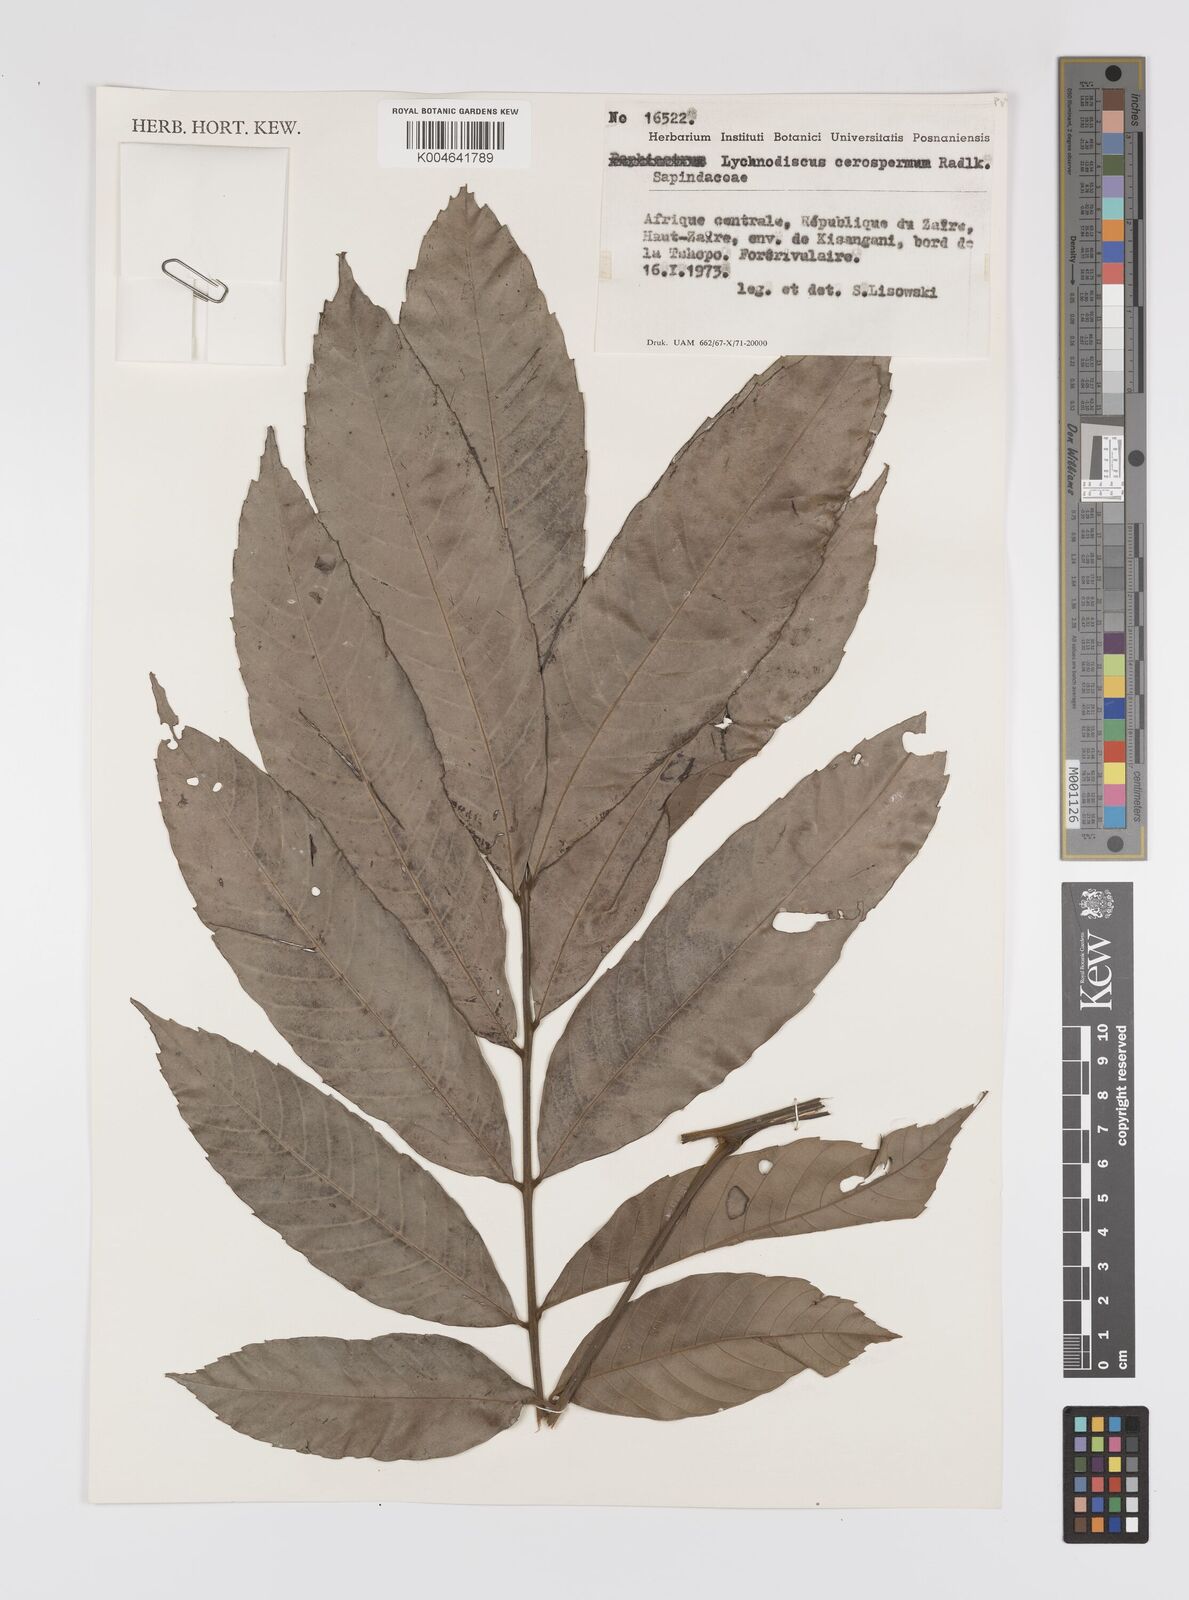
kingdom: Plantae
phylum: Tracheophyta
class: Magnoliopsida
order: Sapindales
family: Sapindaceae
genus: Lychnodiscus
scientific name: Lychnodiscus cerospermus
